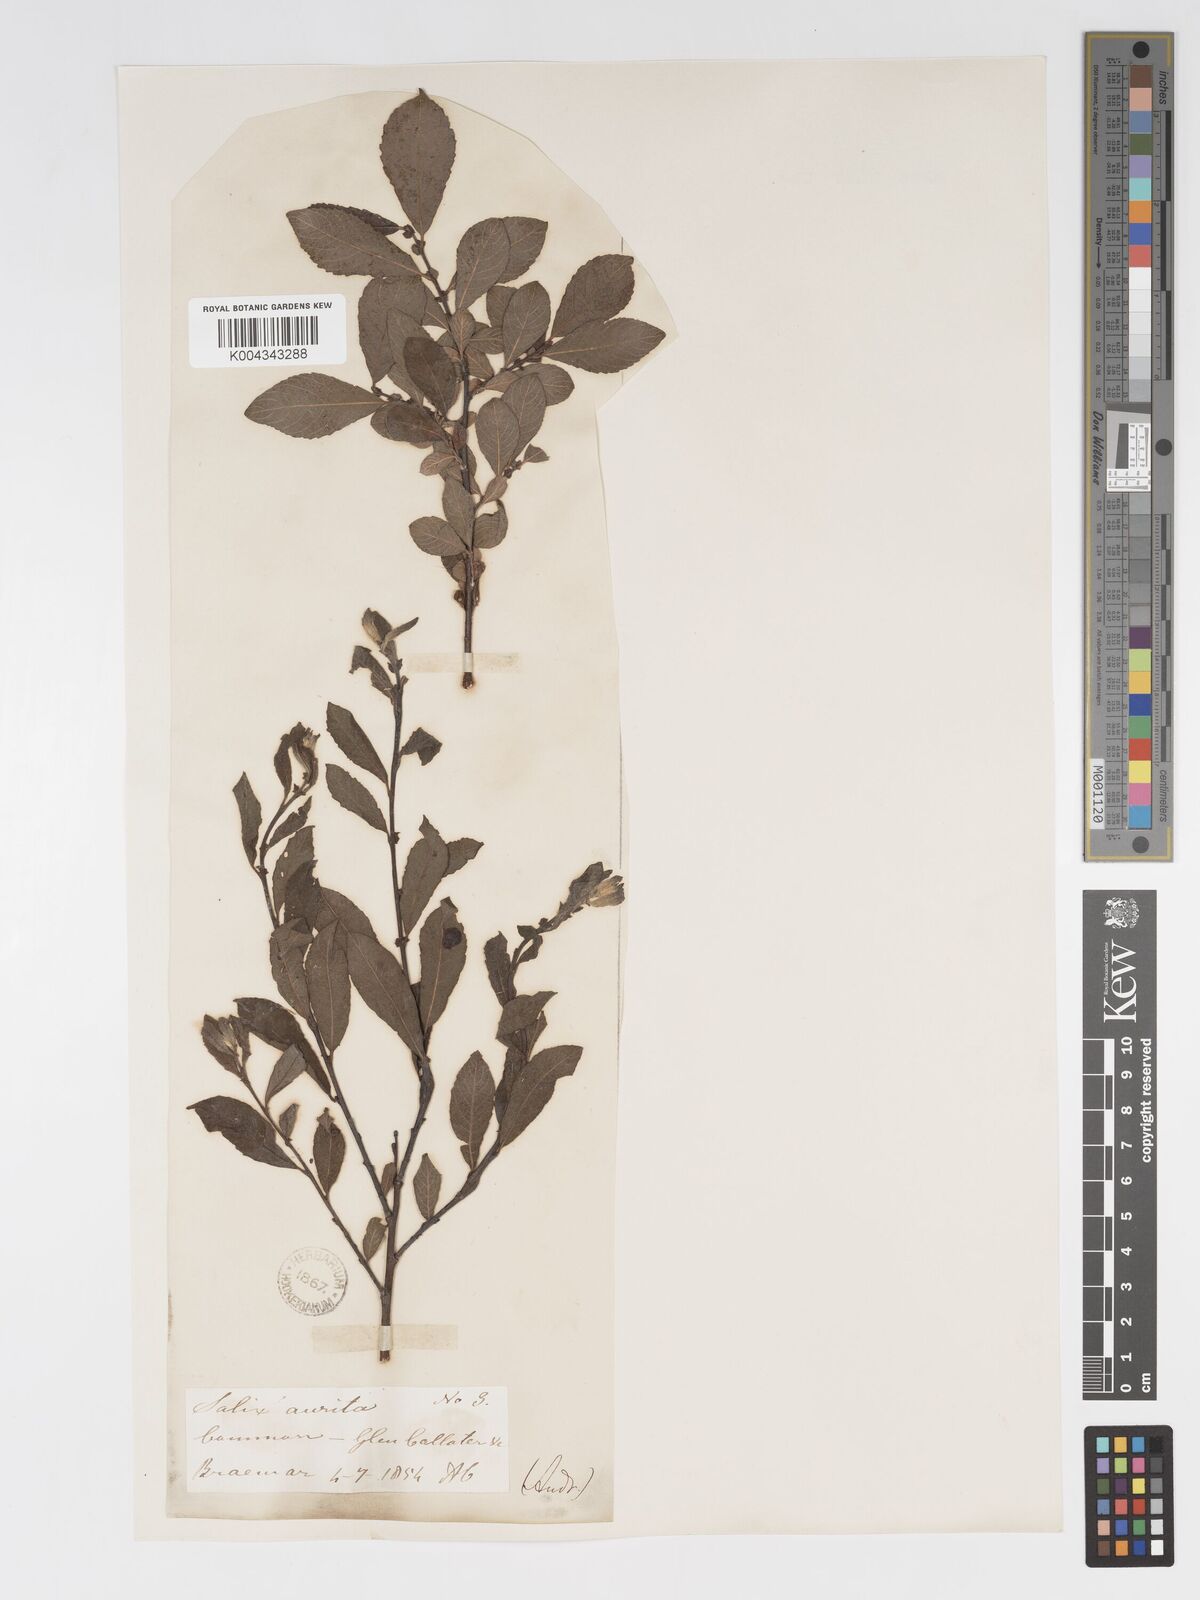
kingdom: Plantae
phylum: Tracheophyta
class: Magnoliopsida
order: Malpighiales
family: Salicaceae
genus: Salix
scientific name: Salix aurita
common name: Eared willow
